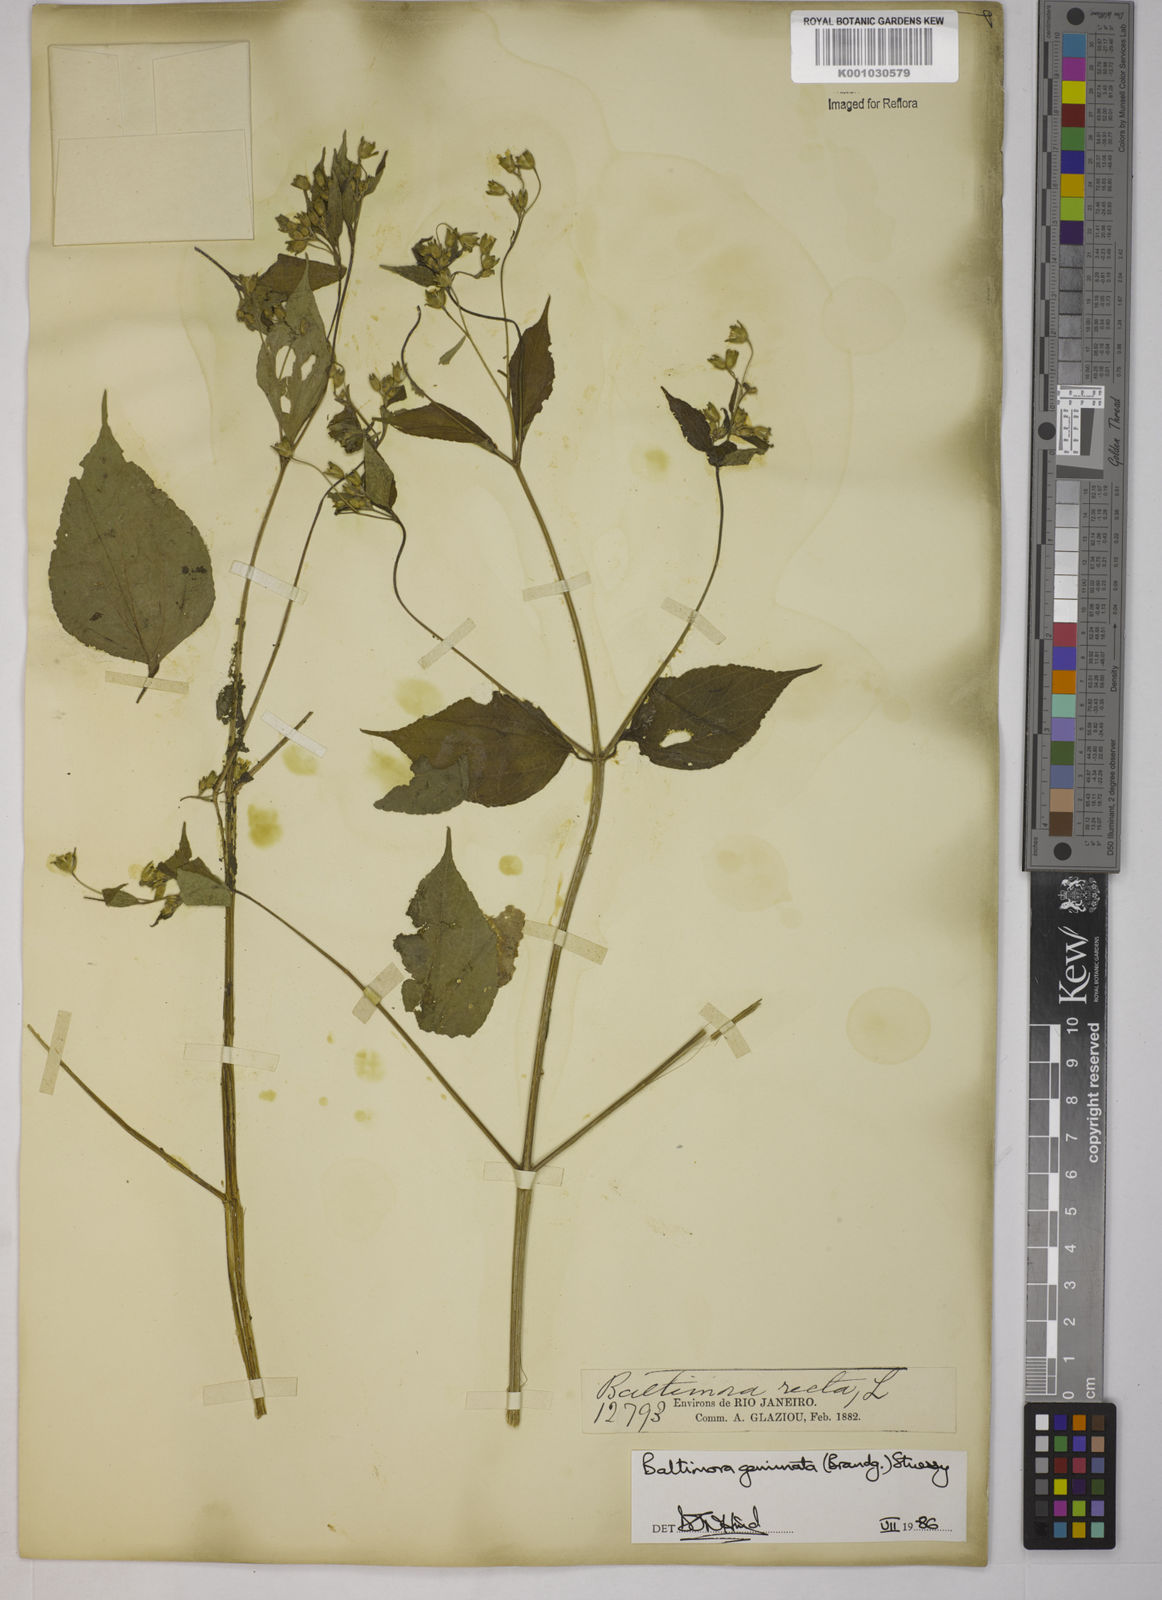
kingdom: Plantae
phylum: Tracheophyta
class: Magnoliopsida
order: Asterales
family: Asteraceae
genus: Baltimora
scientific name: Baltimora geminata
